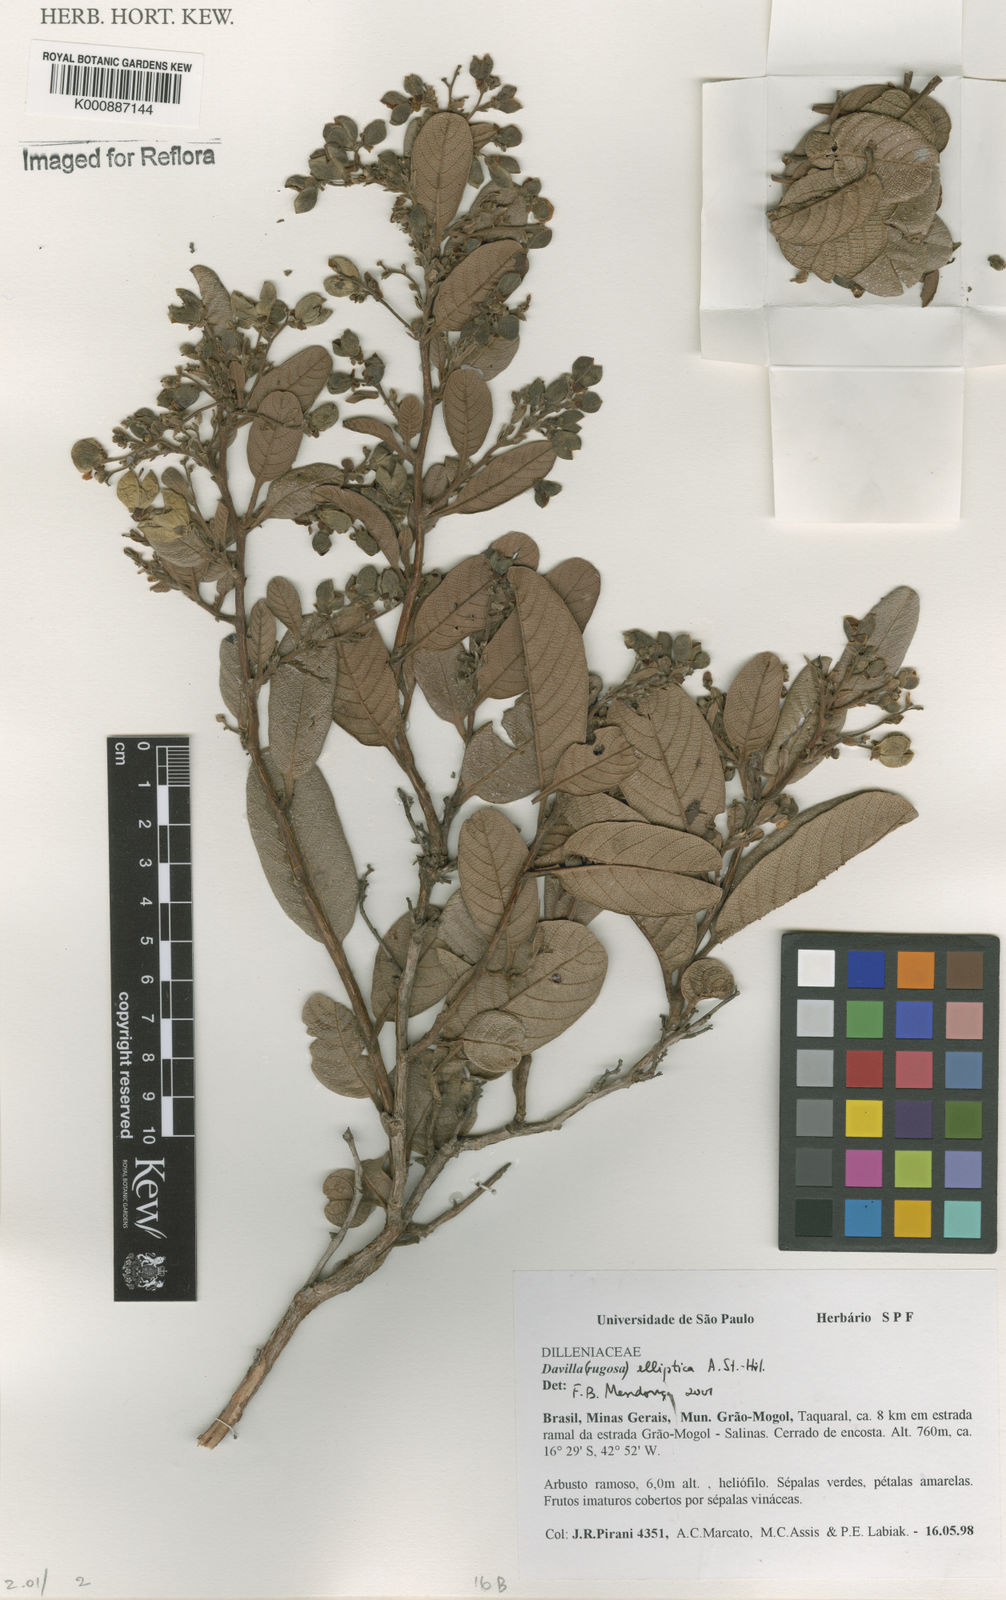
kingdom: Plantae
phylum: Tracheophyta
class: Magnoliopsida
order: Dilleniales
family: Dilleniaceae
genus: Davilla
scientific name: Davilla elliptica
